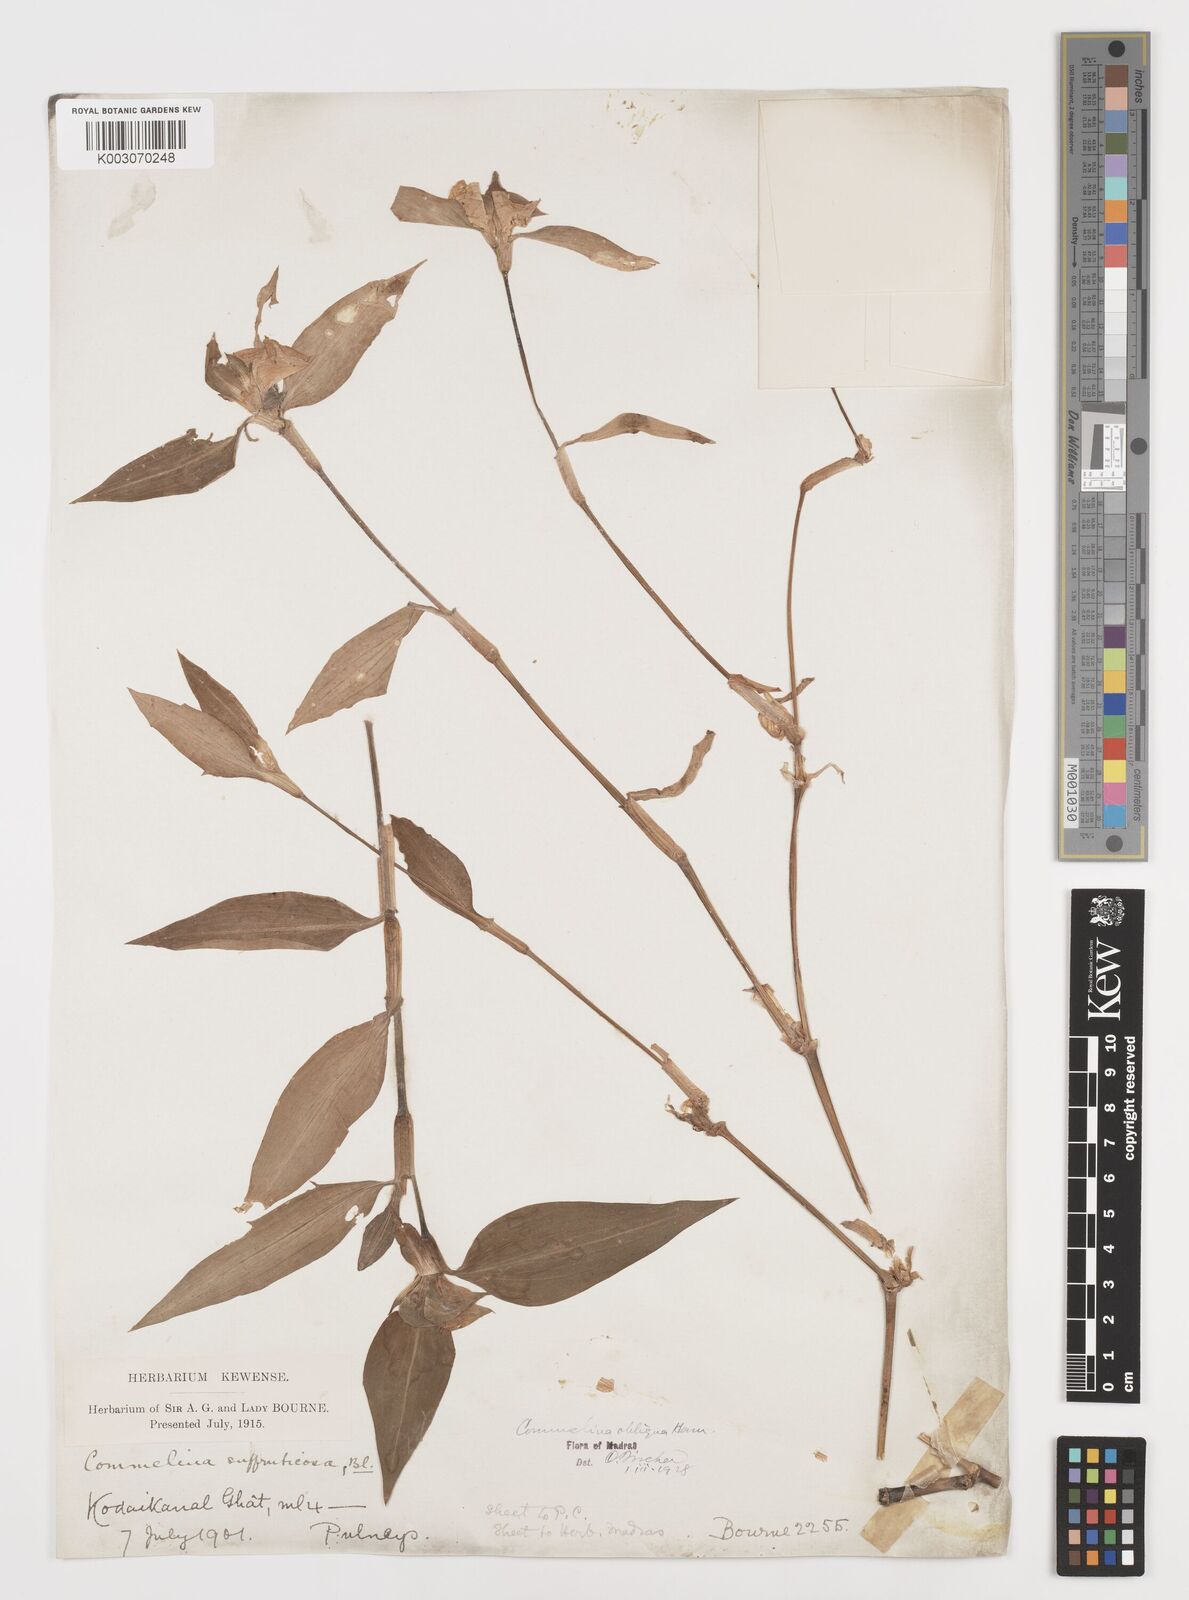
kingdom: Plantae
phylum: Tracheophyta
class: Liliopsida
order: Commelinales
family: Commelinaceae
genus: Commelina
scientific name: Commelina paludosa
